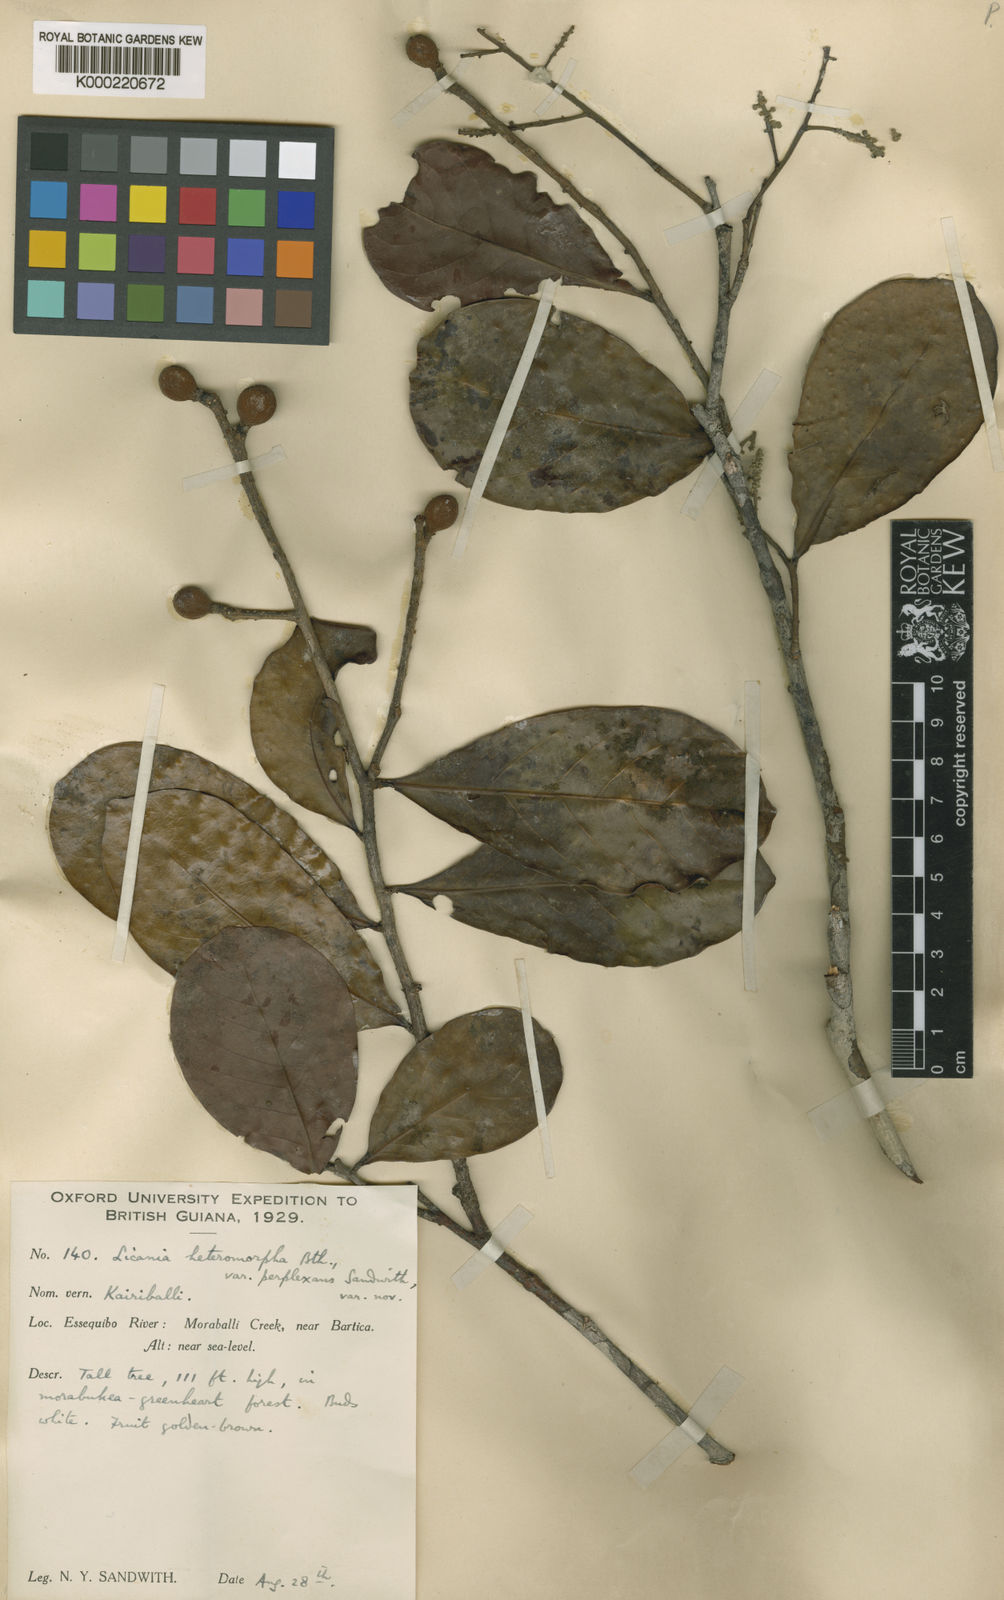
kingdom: Plantae
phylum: Tracheophyta
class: Magnoliopsida
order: Malpighiales
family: Chrysobalanaceae
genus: Hymenopus
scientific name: Hymenopus heteromorphus
